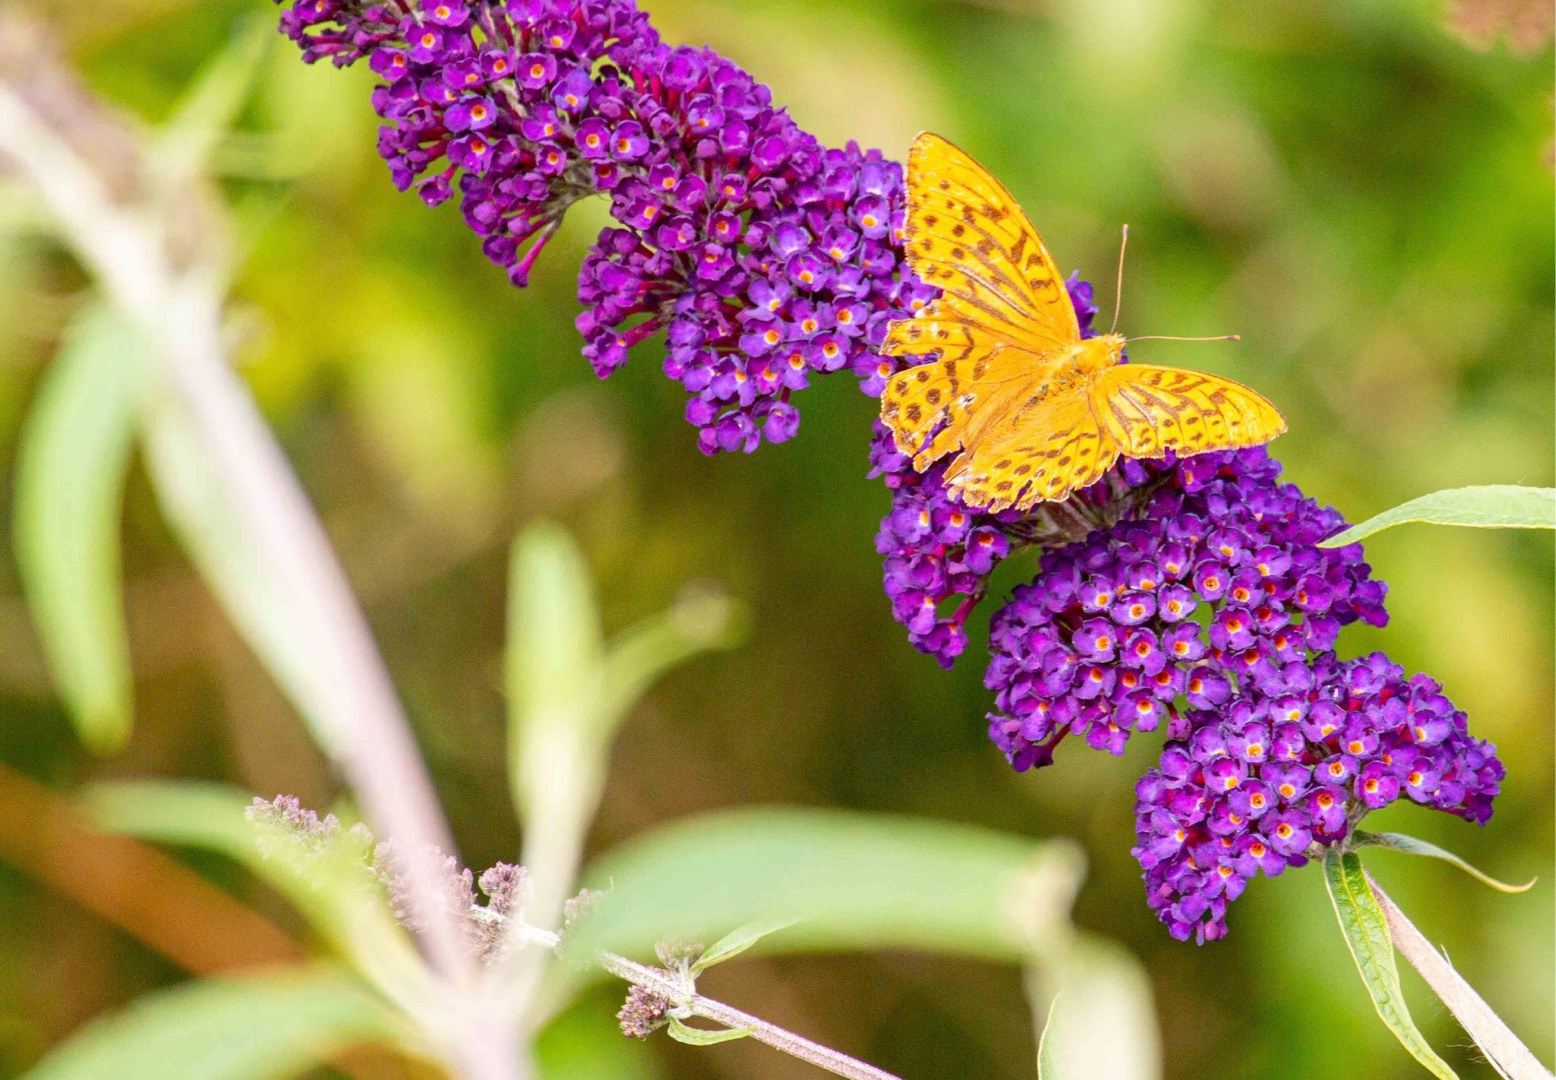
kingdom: Animalia
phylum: Arthropoda
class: Insecta
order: Lepidoptera
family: Nymphalidae
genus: Argynnis
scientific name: Argynnis paphia
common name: Kejserkåbe
